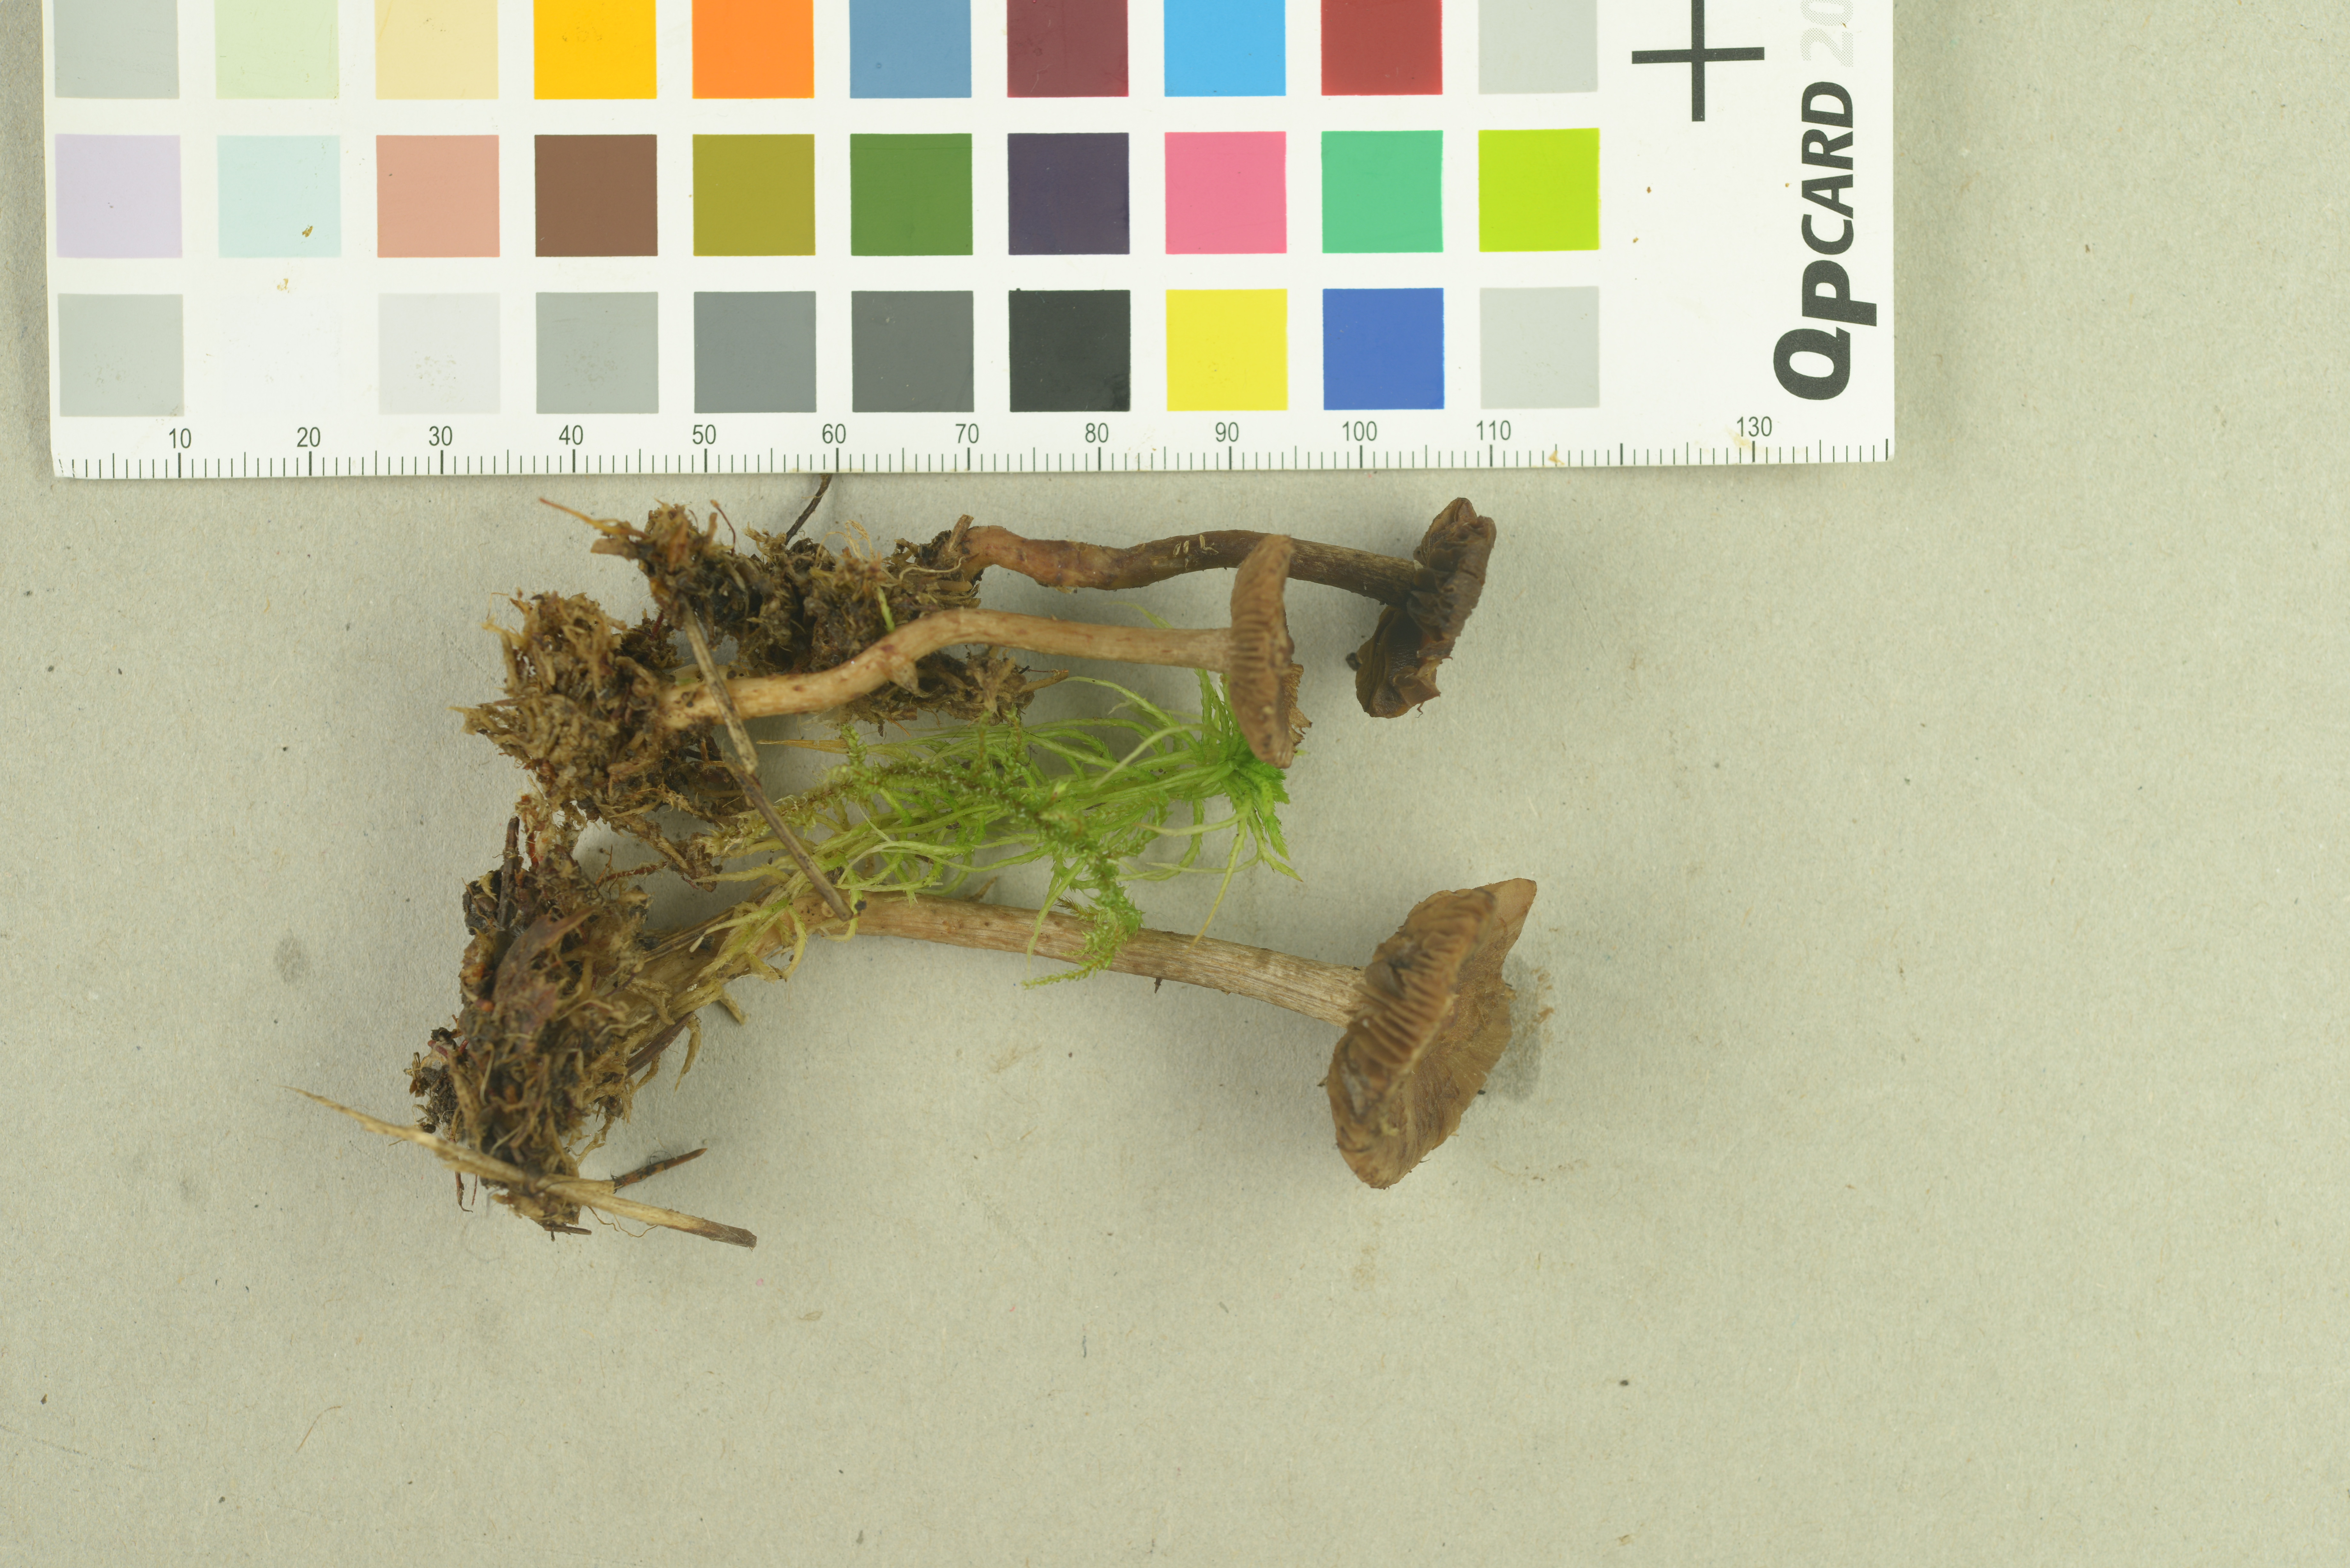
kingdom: Fungi
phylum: Basidiomycota
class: Agaricomycetes
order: Agaricales
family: Inocybaceae
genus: Inocybe
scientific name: Inocybe cincinnata
